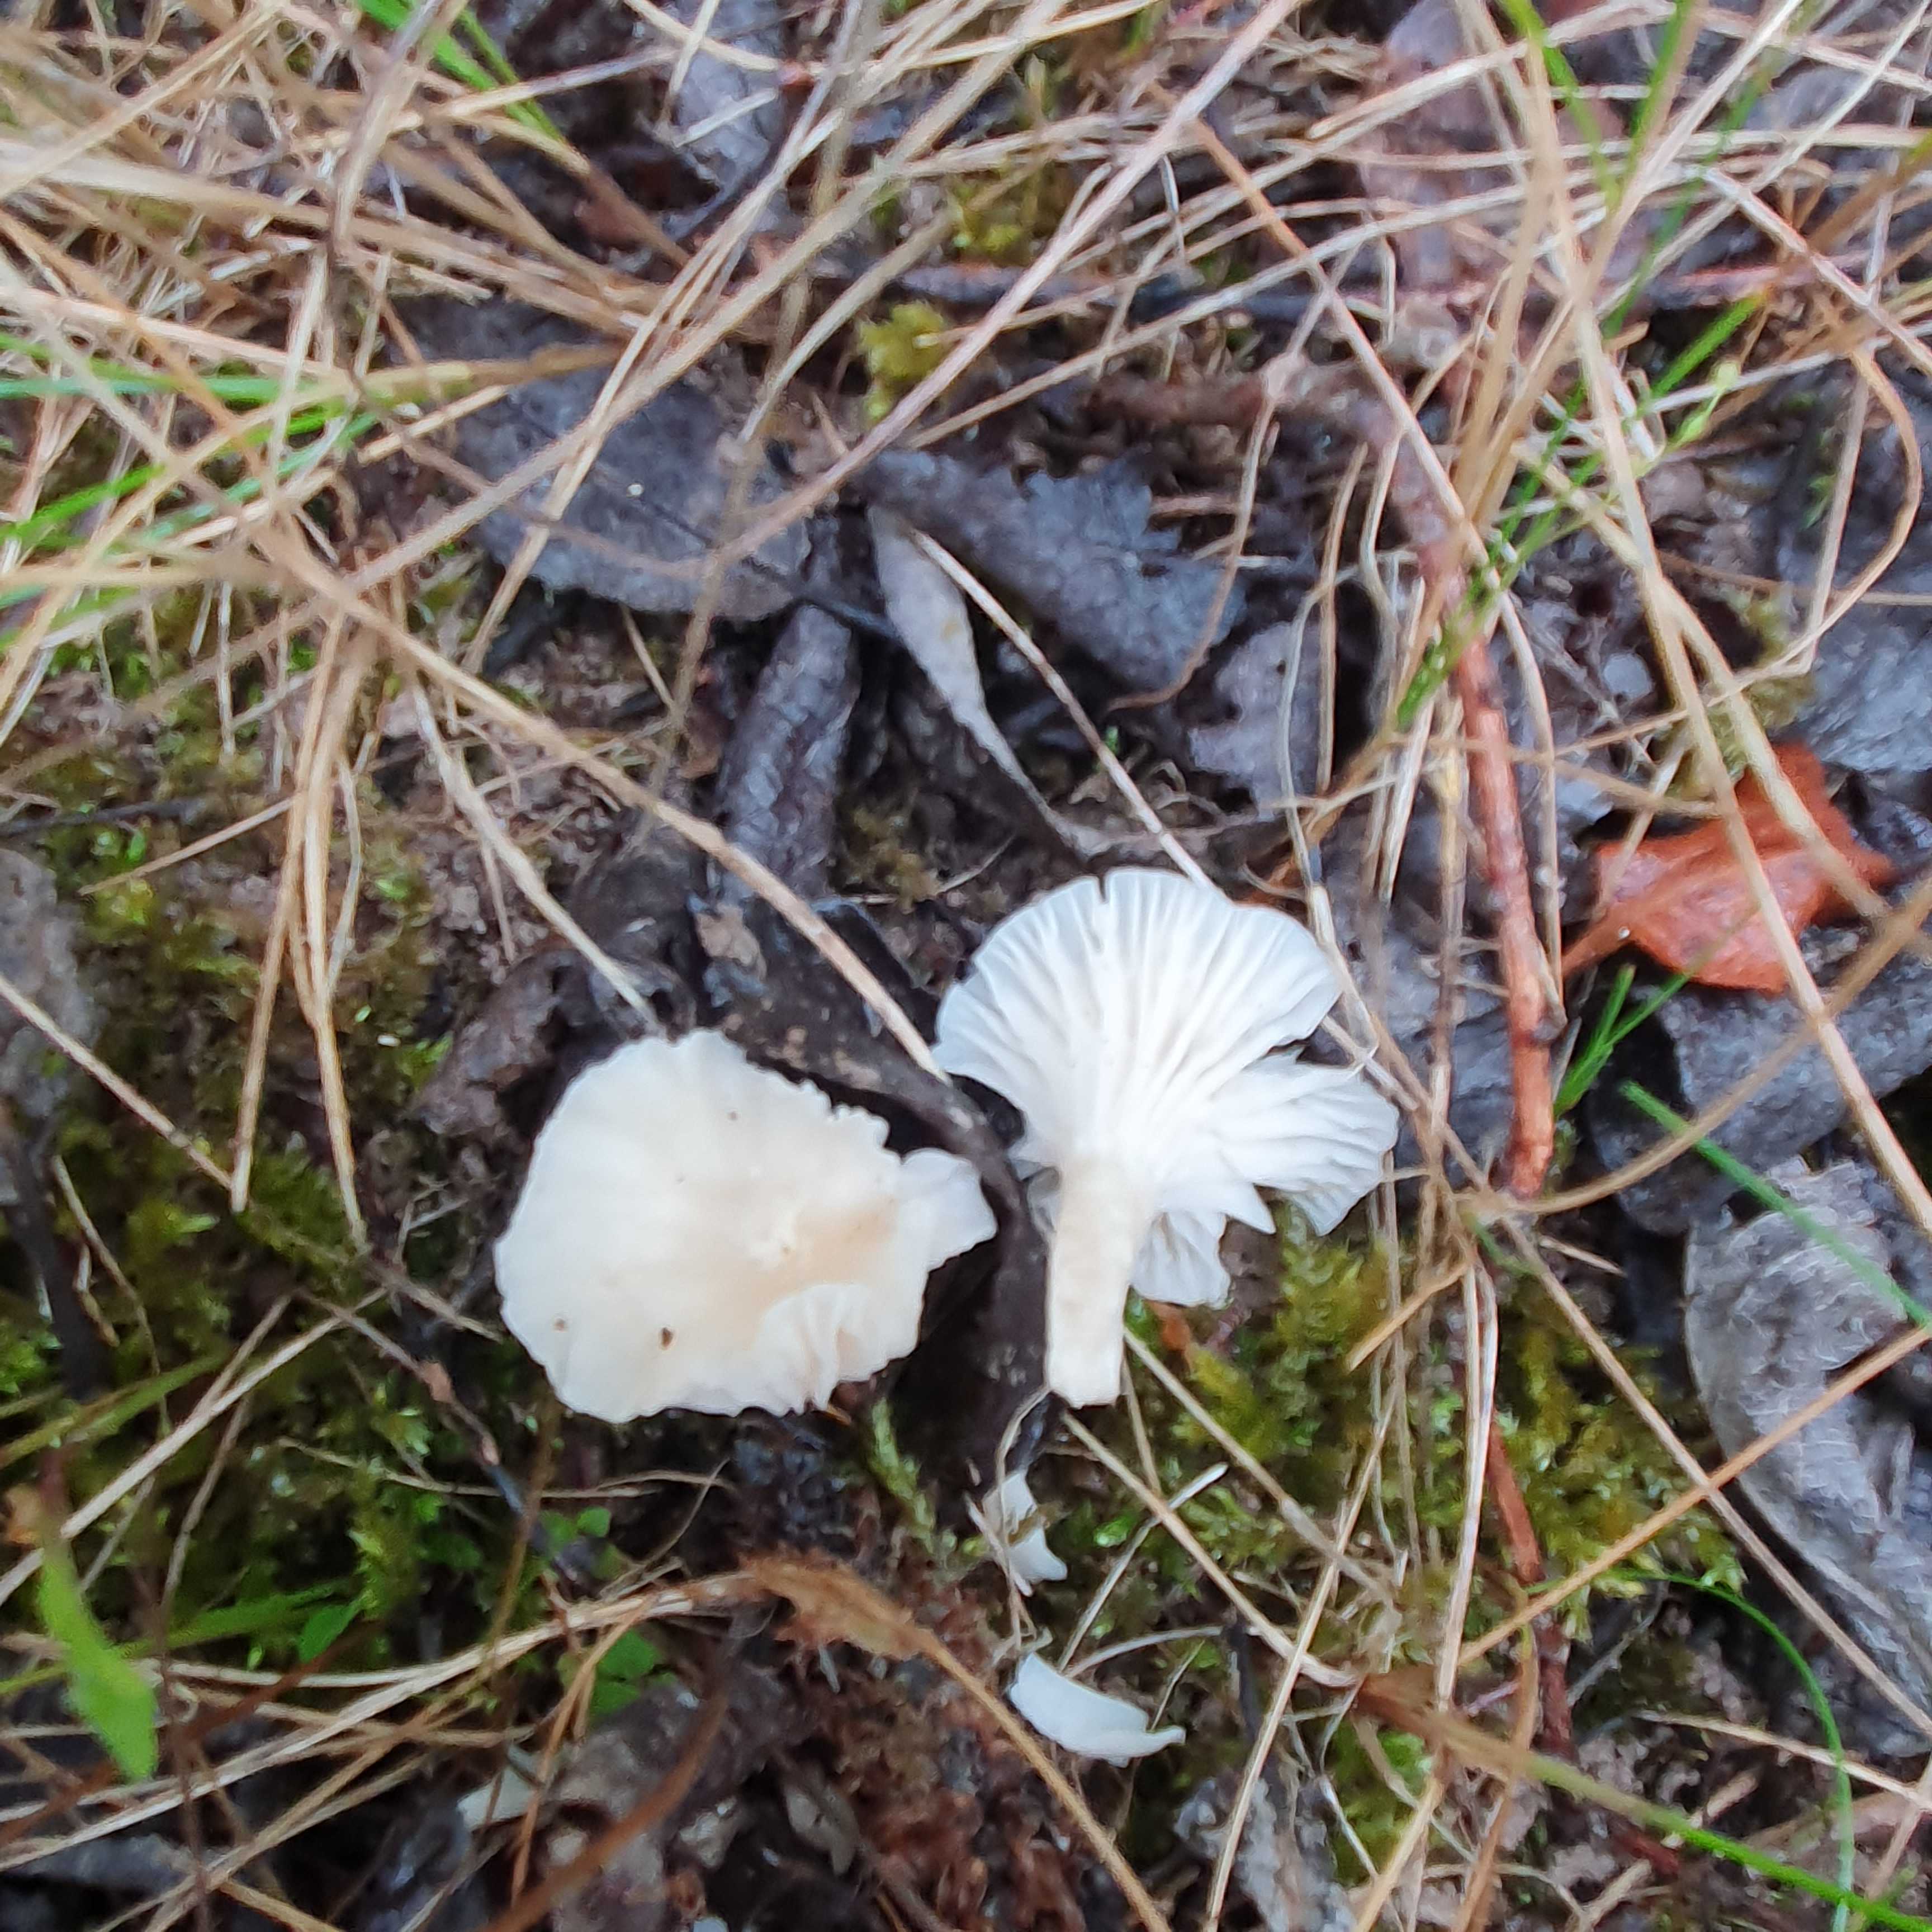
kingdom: Fungi
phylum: Basidiomycota
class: Agaricomycetes
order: Agaricales
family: Hygrophoraceae
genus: Cuphophyllus
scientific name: Cuphophyllus virgineus
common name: snehvid vokshat
